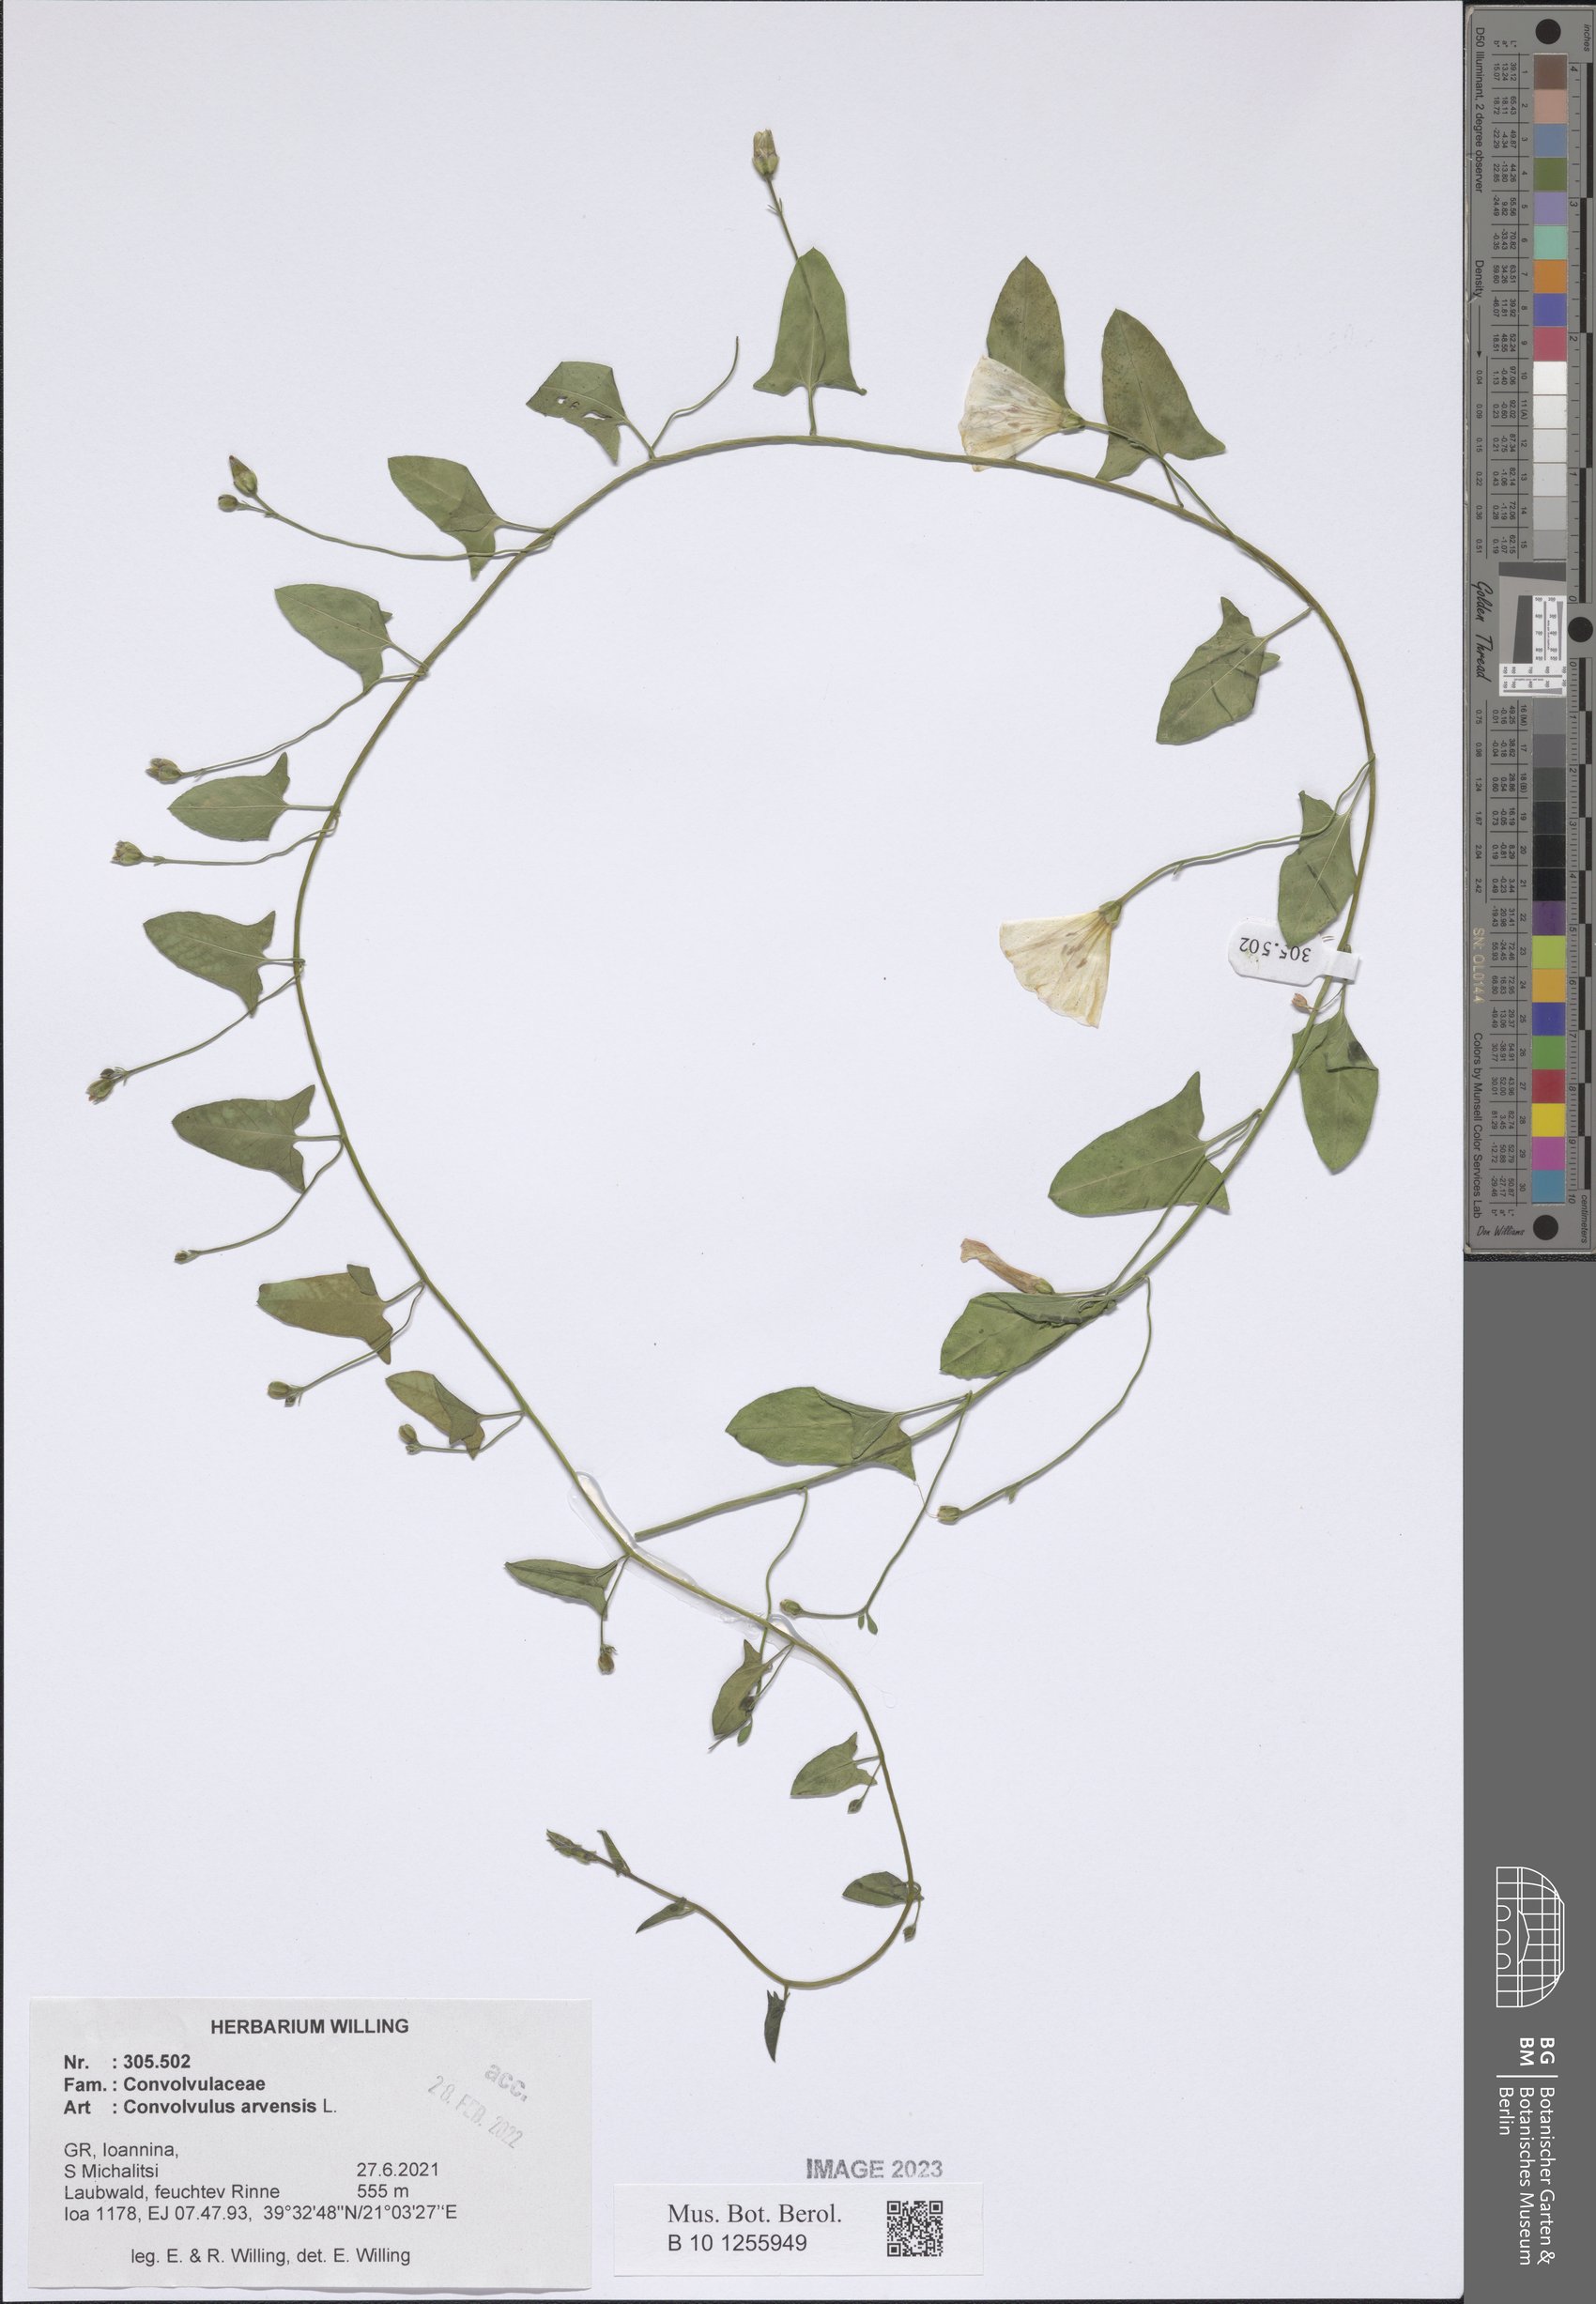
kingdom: Plantae
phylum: Tracheophyta
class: Magnoliopsida
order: Solanales
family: Convolvulaceae
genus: Convolvulus
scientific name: Convolvulus arvensis
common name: Field bindweed
